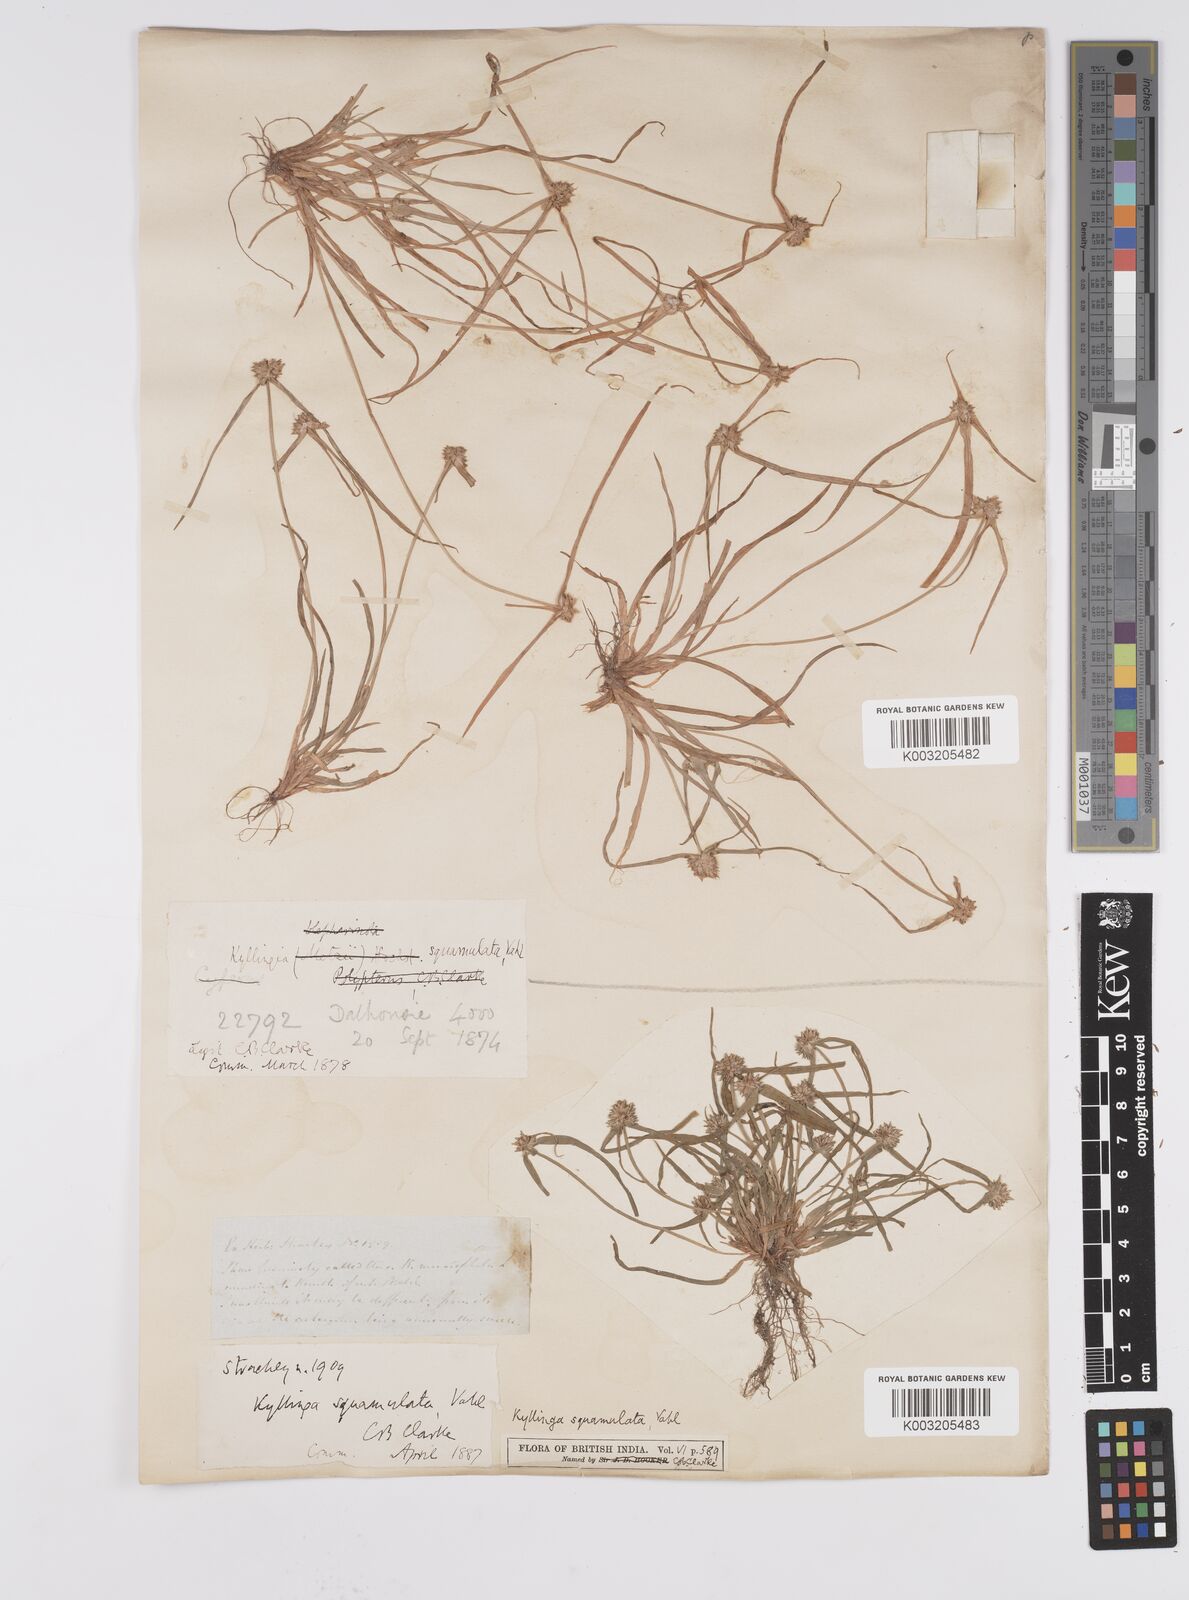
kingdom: Plantae
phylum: Tracheophyta
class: Liliopsida
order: Poales
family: Cyperaceae
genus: Cyperus
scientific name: Cyperus
